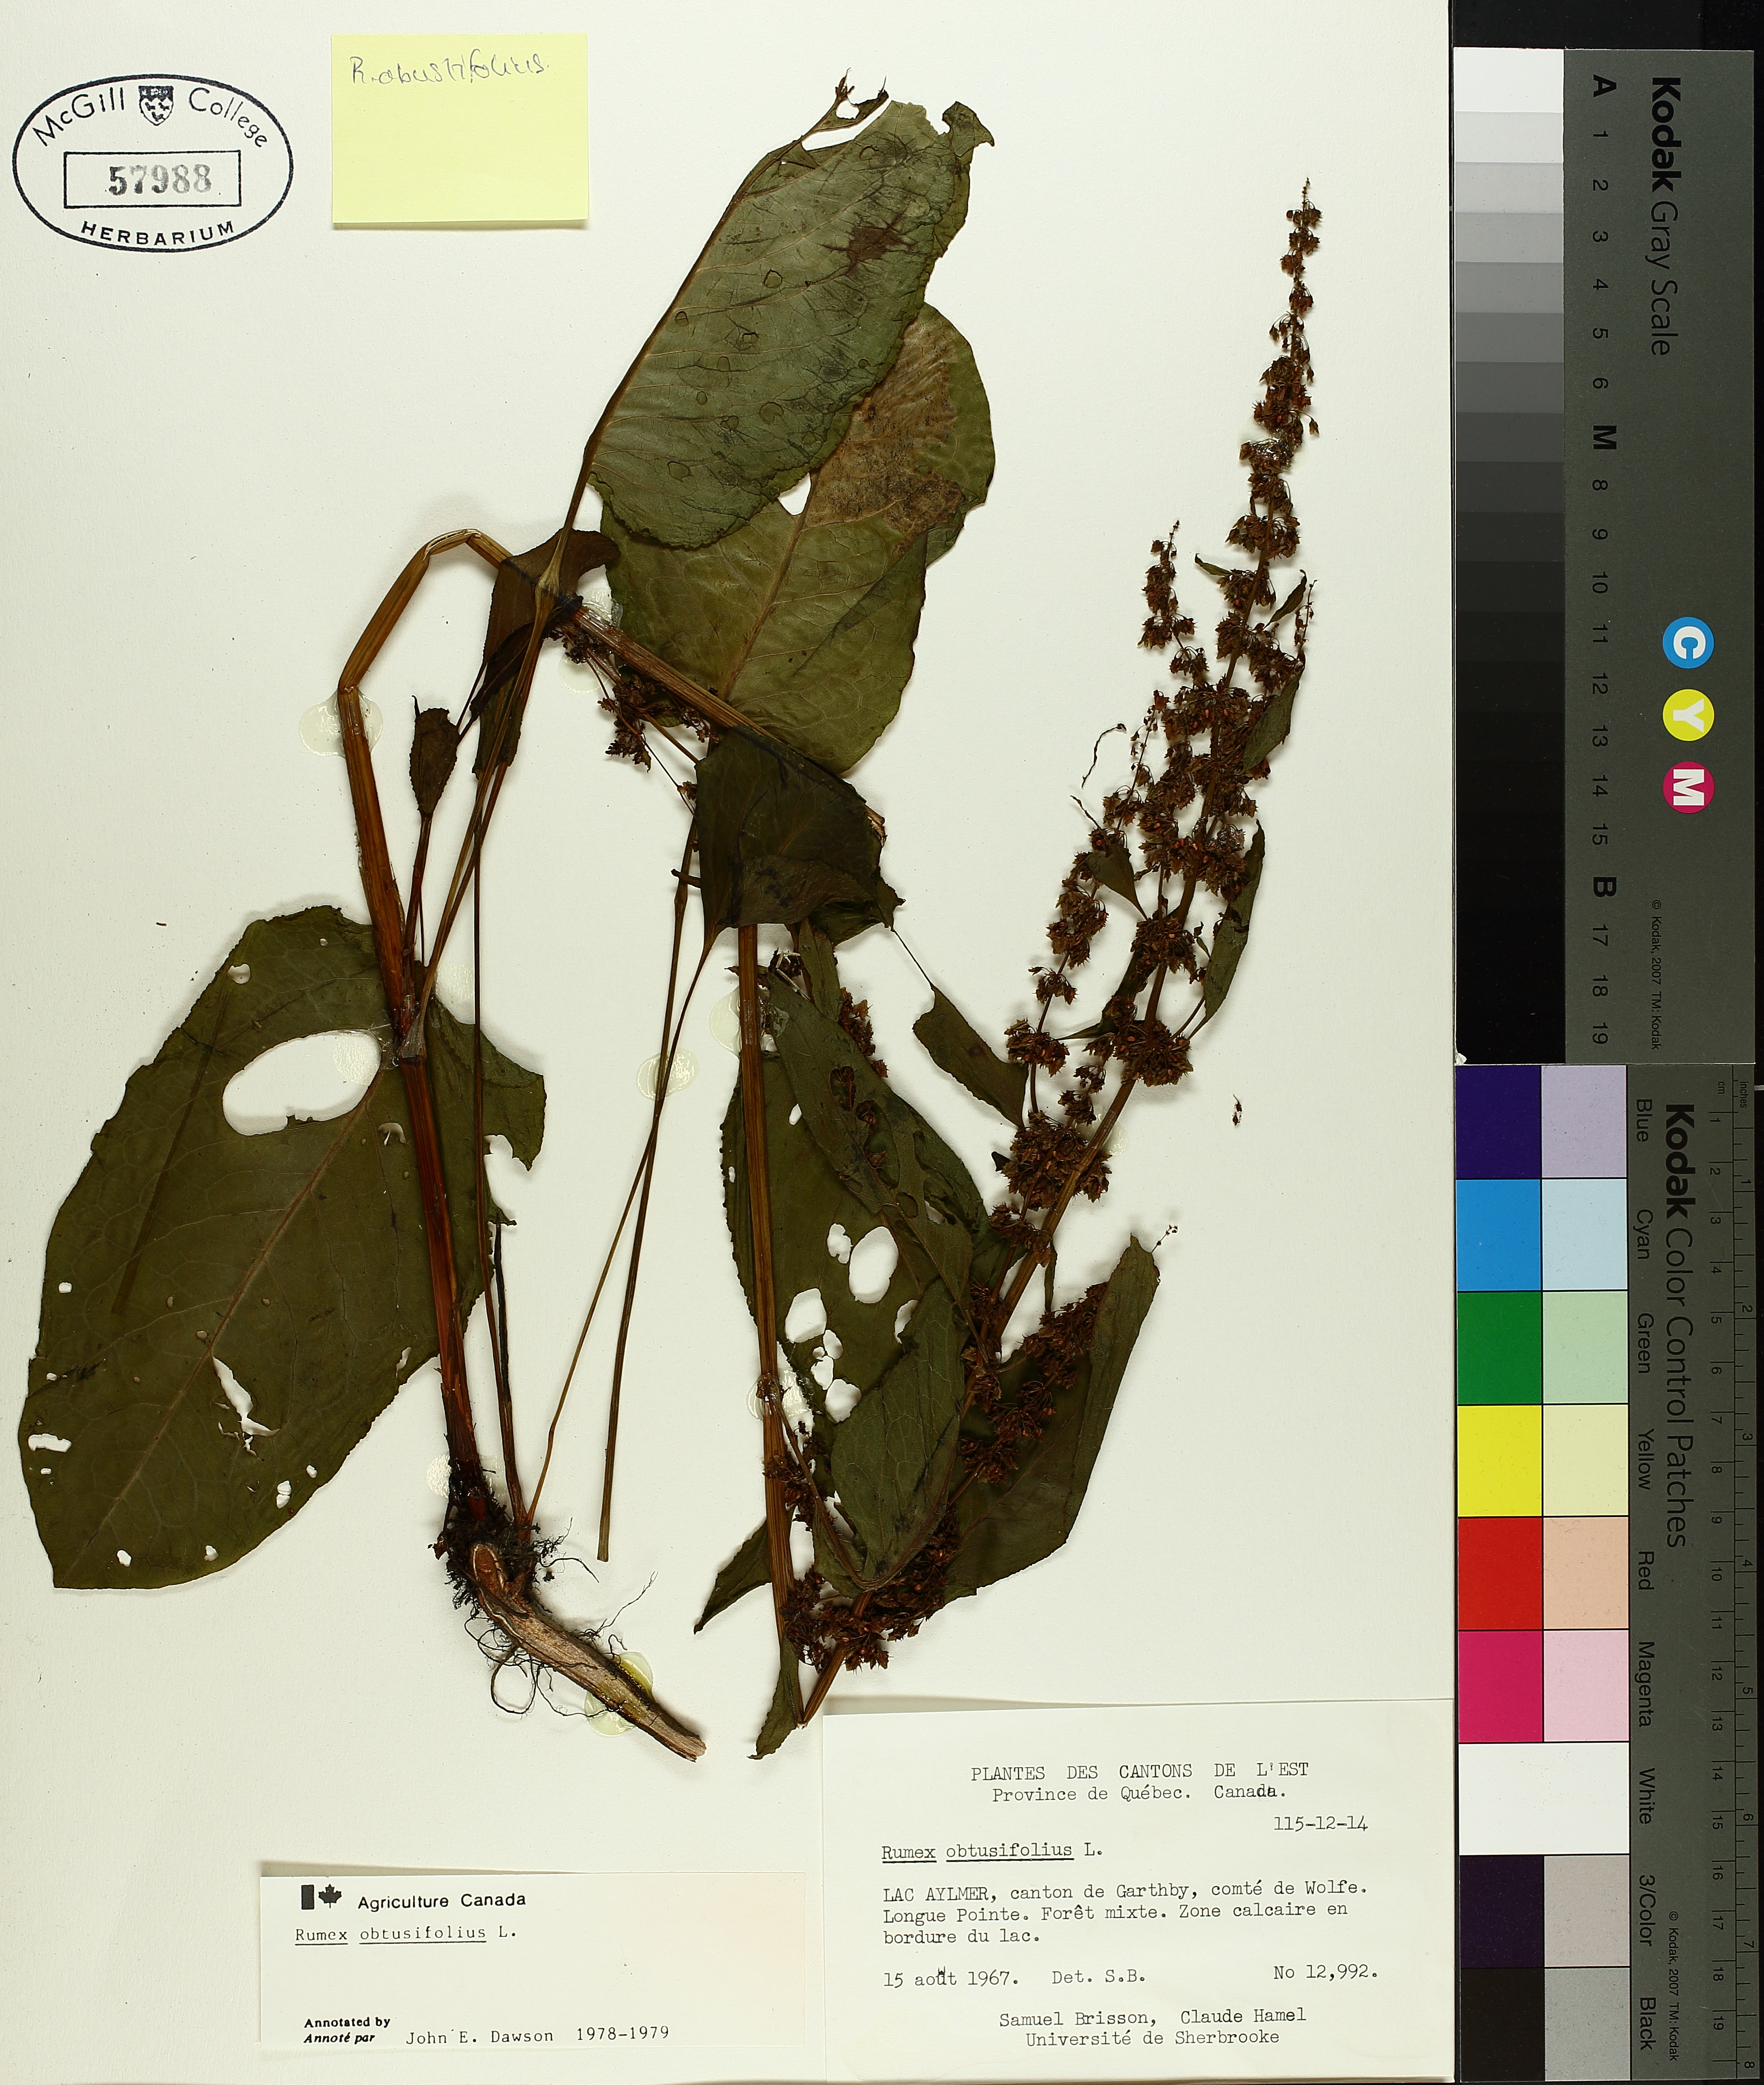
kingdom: Plantae
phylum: Tracheophyta
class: Magnoliopsida
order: Caryophyllales
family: Polygonaceae
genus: Rumex
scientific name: Rumex obtusifolius
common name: Bitter dock
